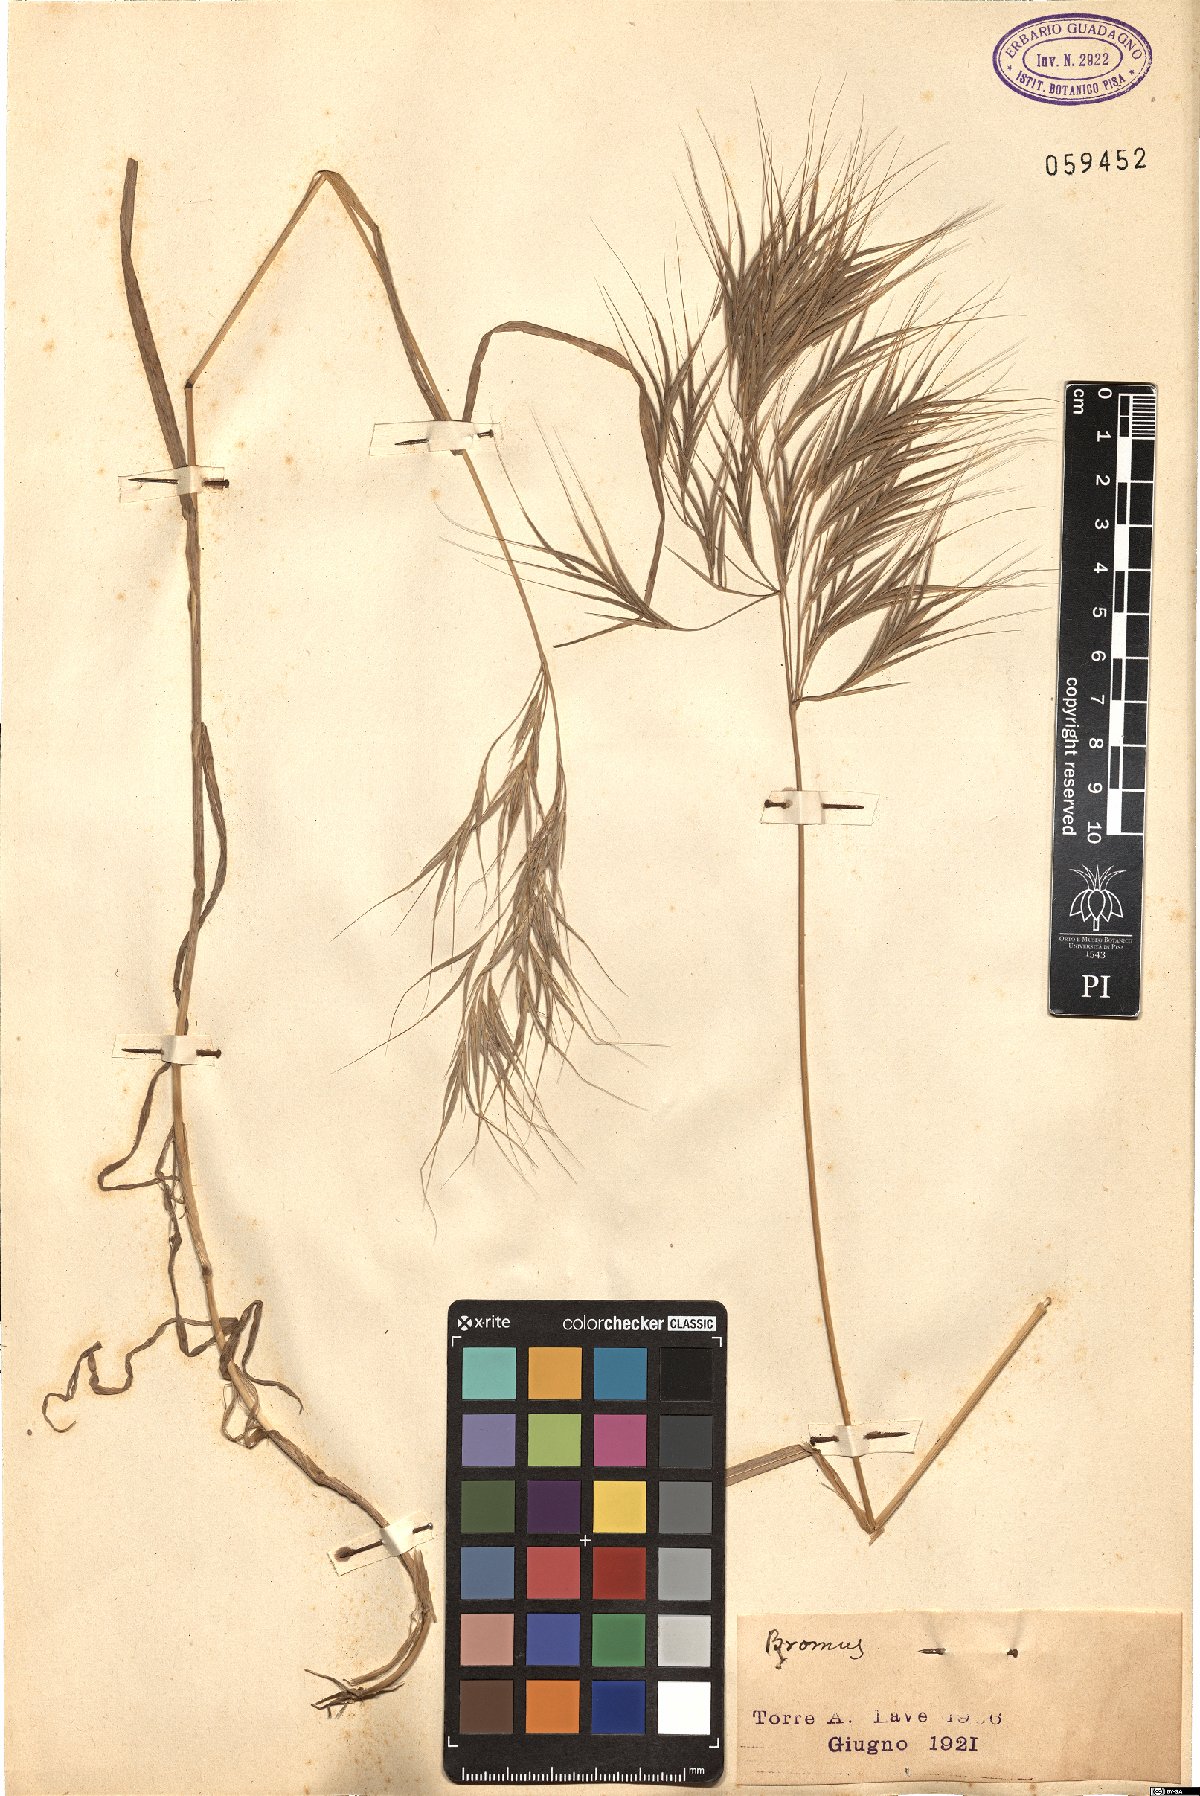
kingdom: Plantae
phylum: Tracheophyta
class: Liliopsida
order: Poales
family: Poaceae
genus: Bromus
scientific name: Bromus
